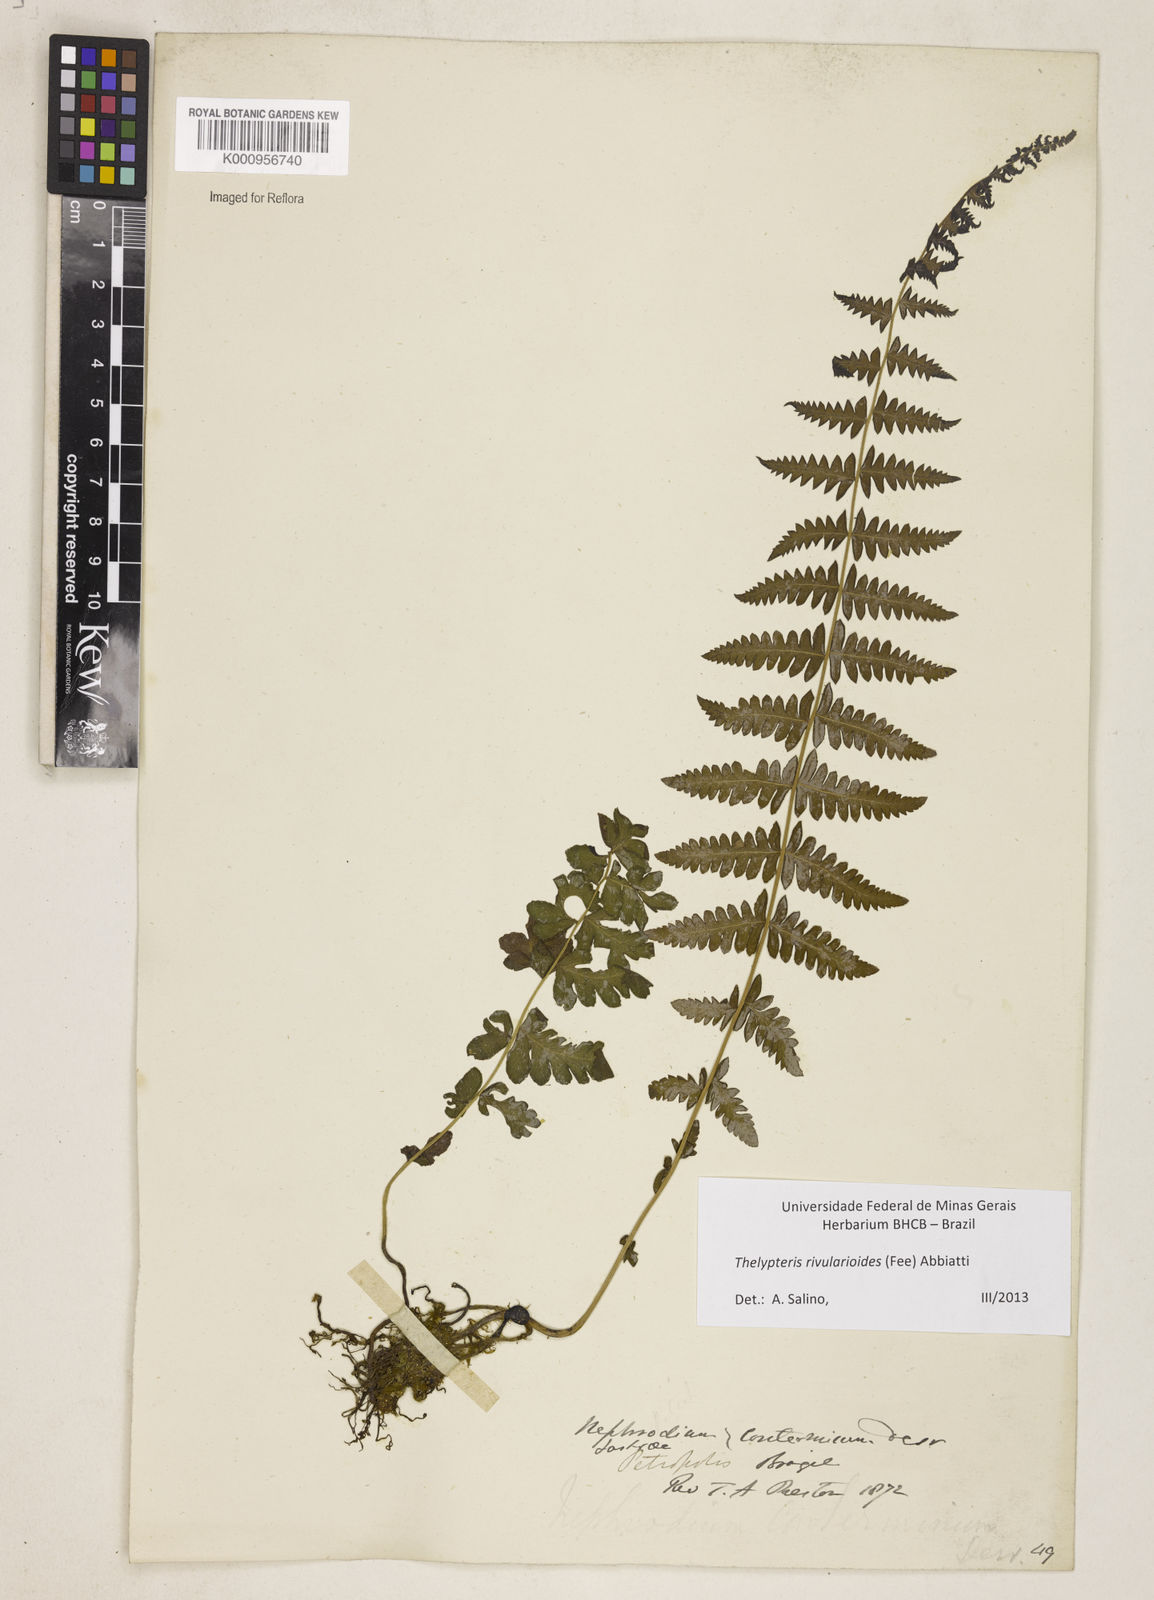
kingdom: Plantae
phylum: Tracheophyta
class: Polypodiopsida
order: Polypodiales
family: Thelypteridaceae
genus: Amauropelta
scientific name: Amauropelta rivularioides
